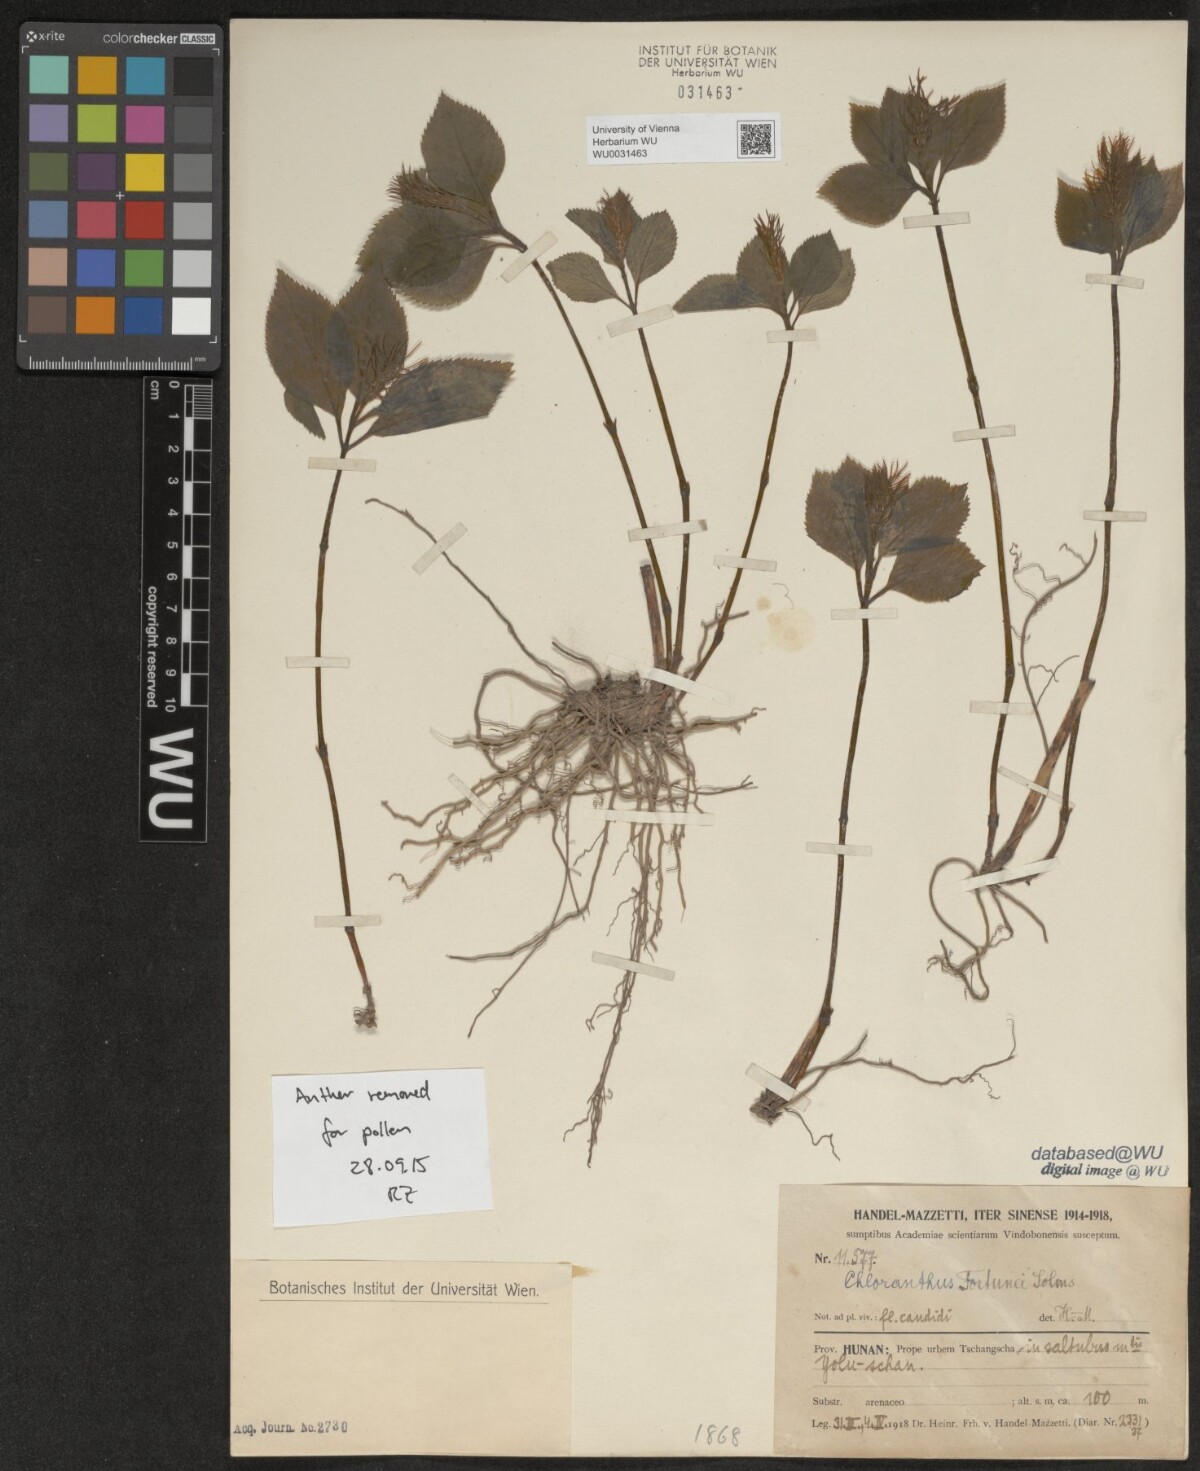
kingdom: Plantae
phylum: Tracheophyta
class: Magnoliopsida
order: Chloranthales
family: Chloranthaceae
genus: Chloranthus
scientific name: Chloranthus holostegius
